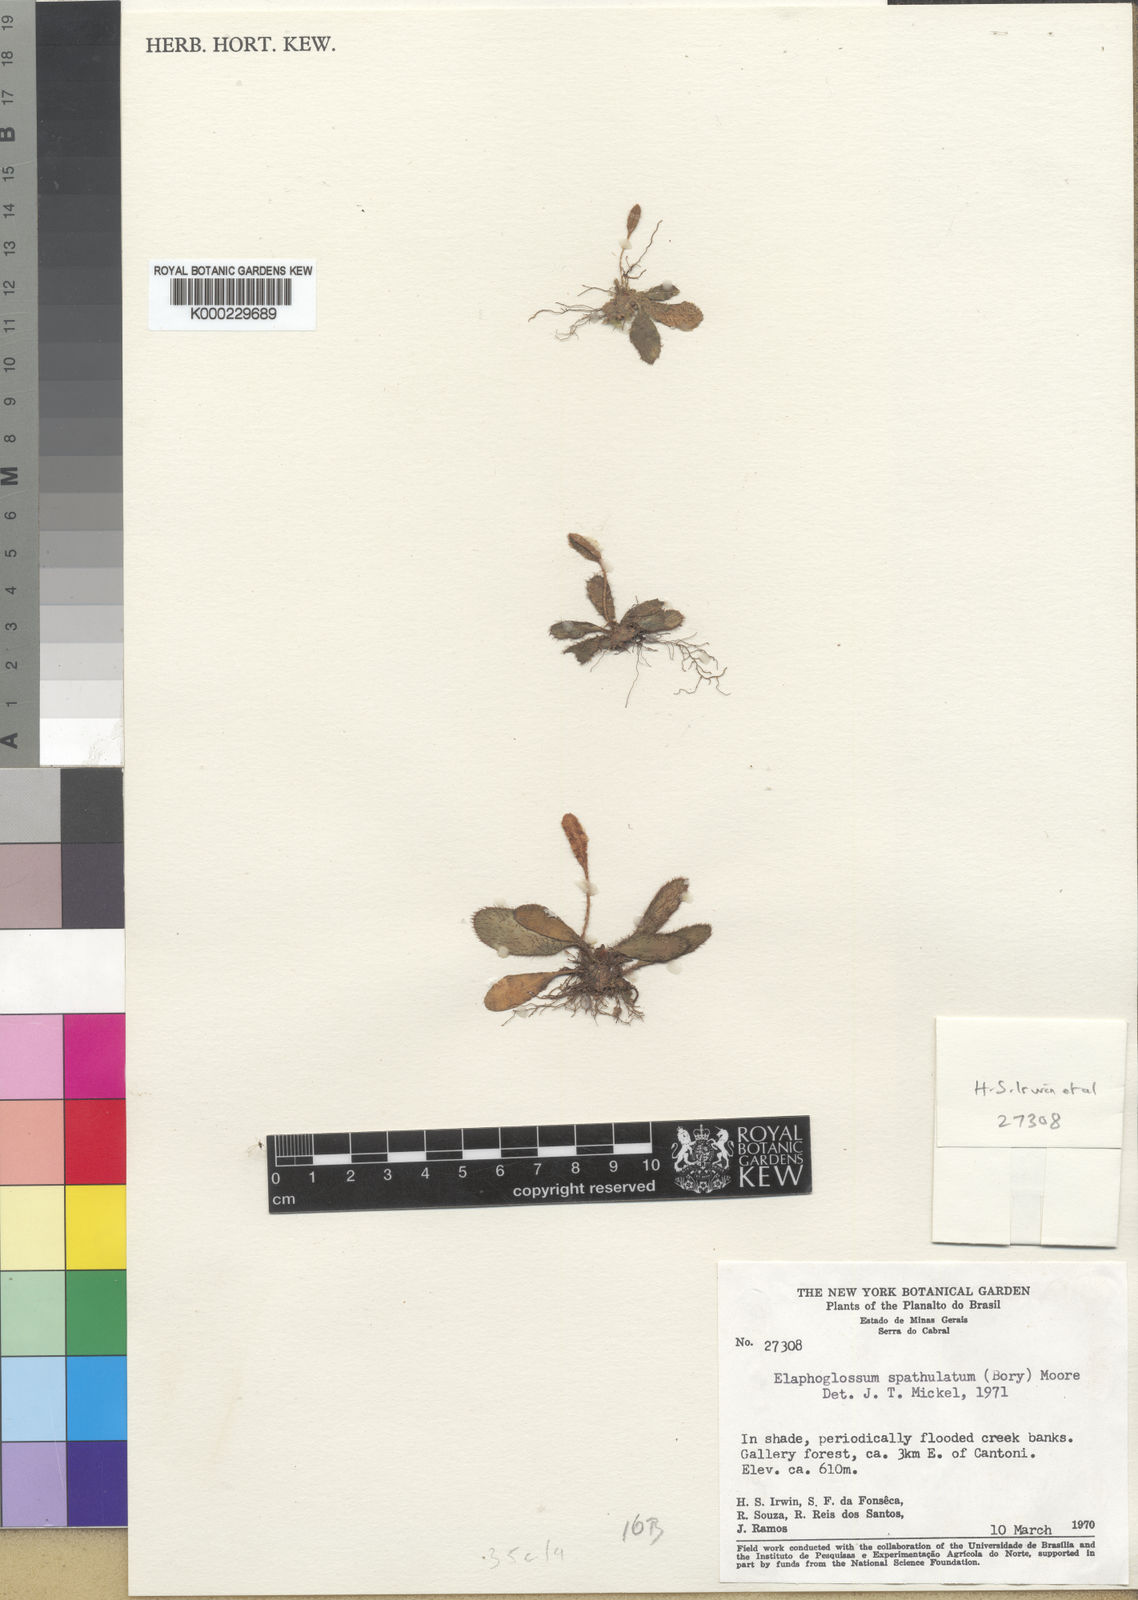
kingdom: Plantae
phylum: Tracheophyta
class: Polypodiopsida
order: Polypodiales
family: Dryopteridaceae
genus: Elaphoglossum
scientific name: Elaphoglossum hieracioides
